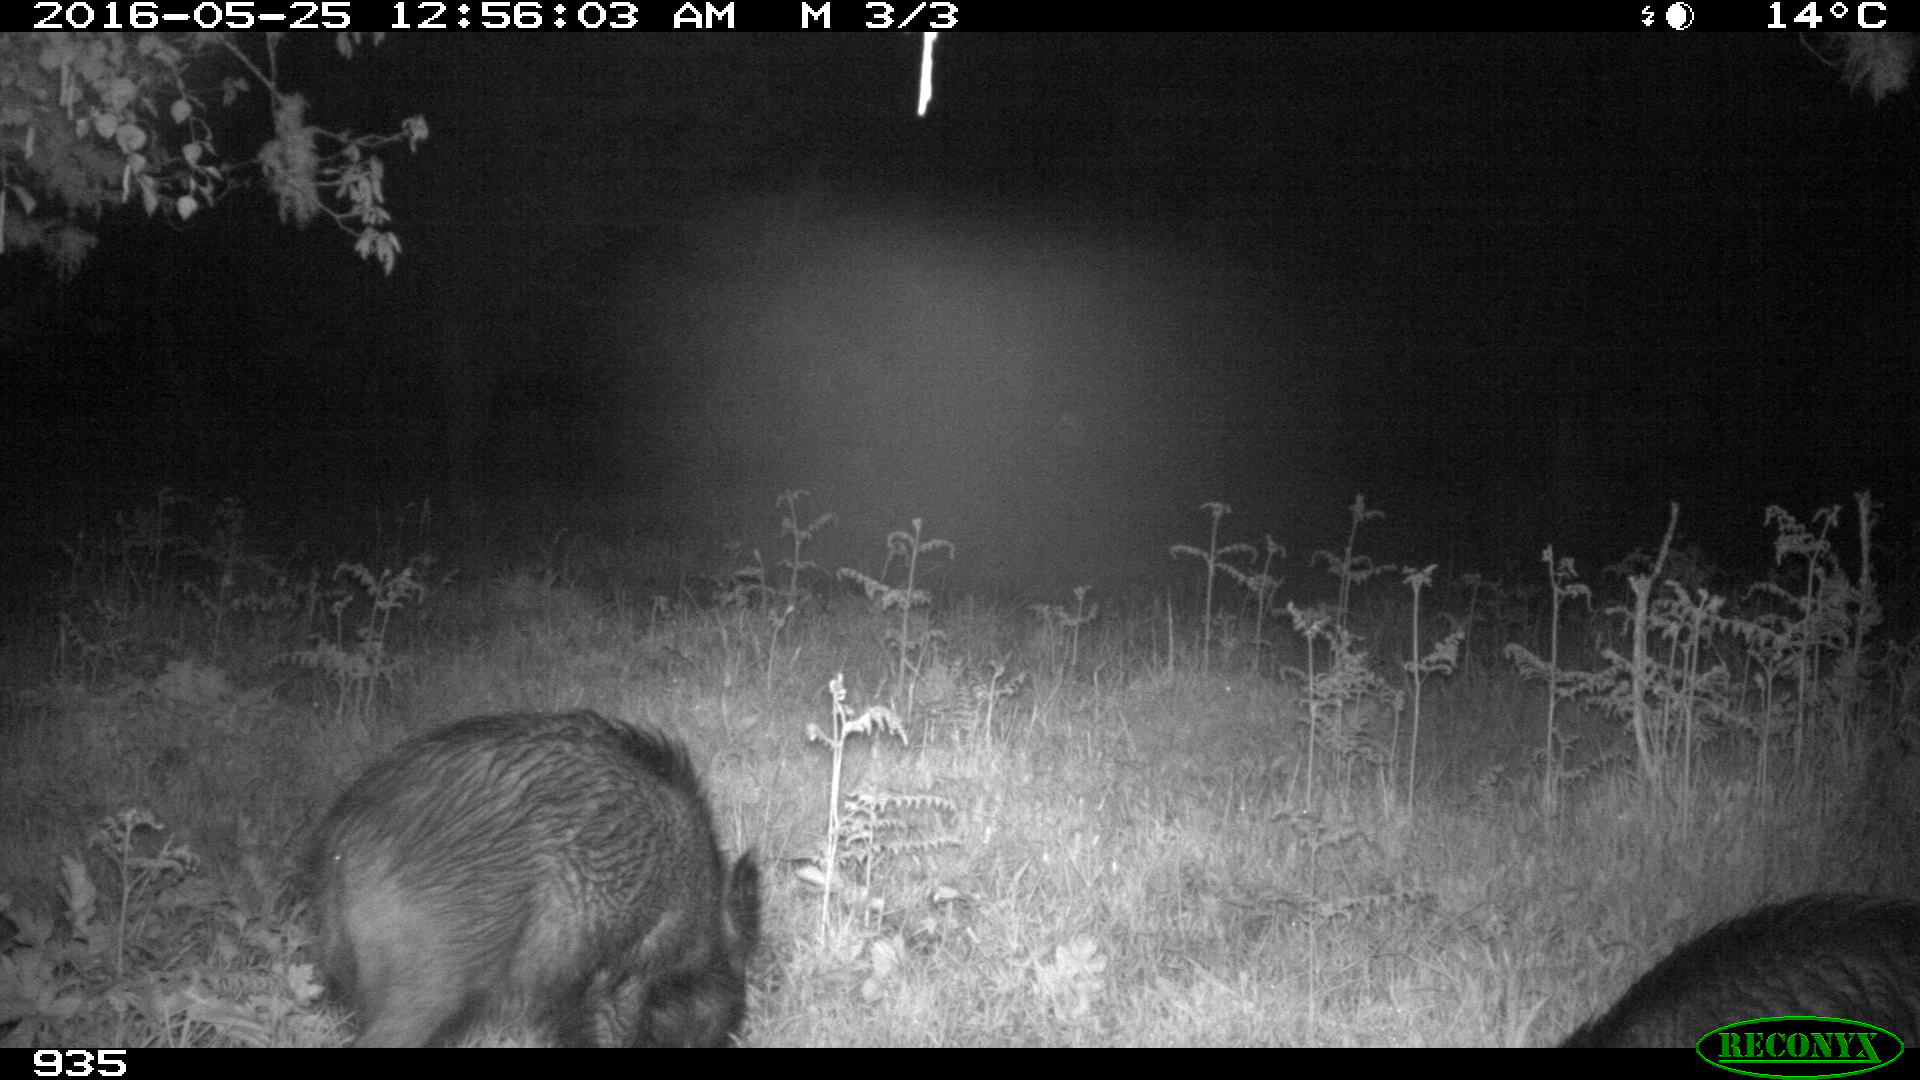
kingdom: Animalia
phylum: Chordata
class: Mammalia
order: Artiodactyla
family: Suidae
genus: Sus
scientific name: Sus scrofa
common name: Wild boar
